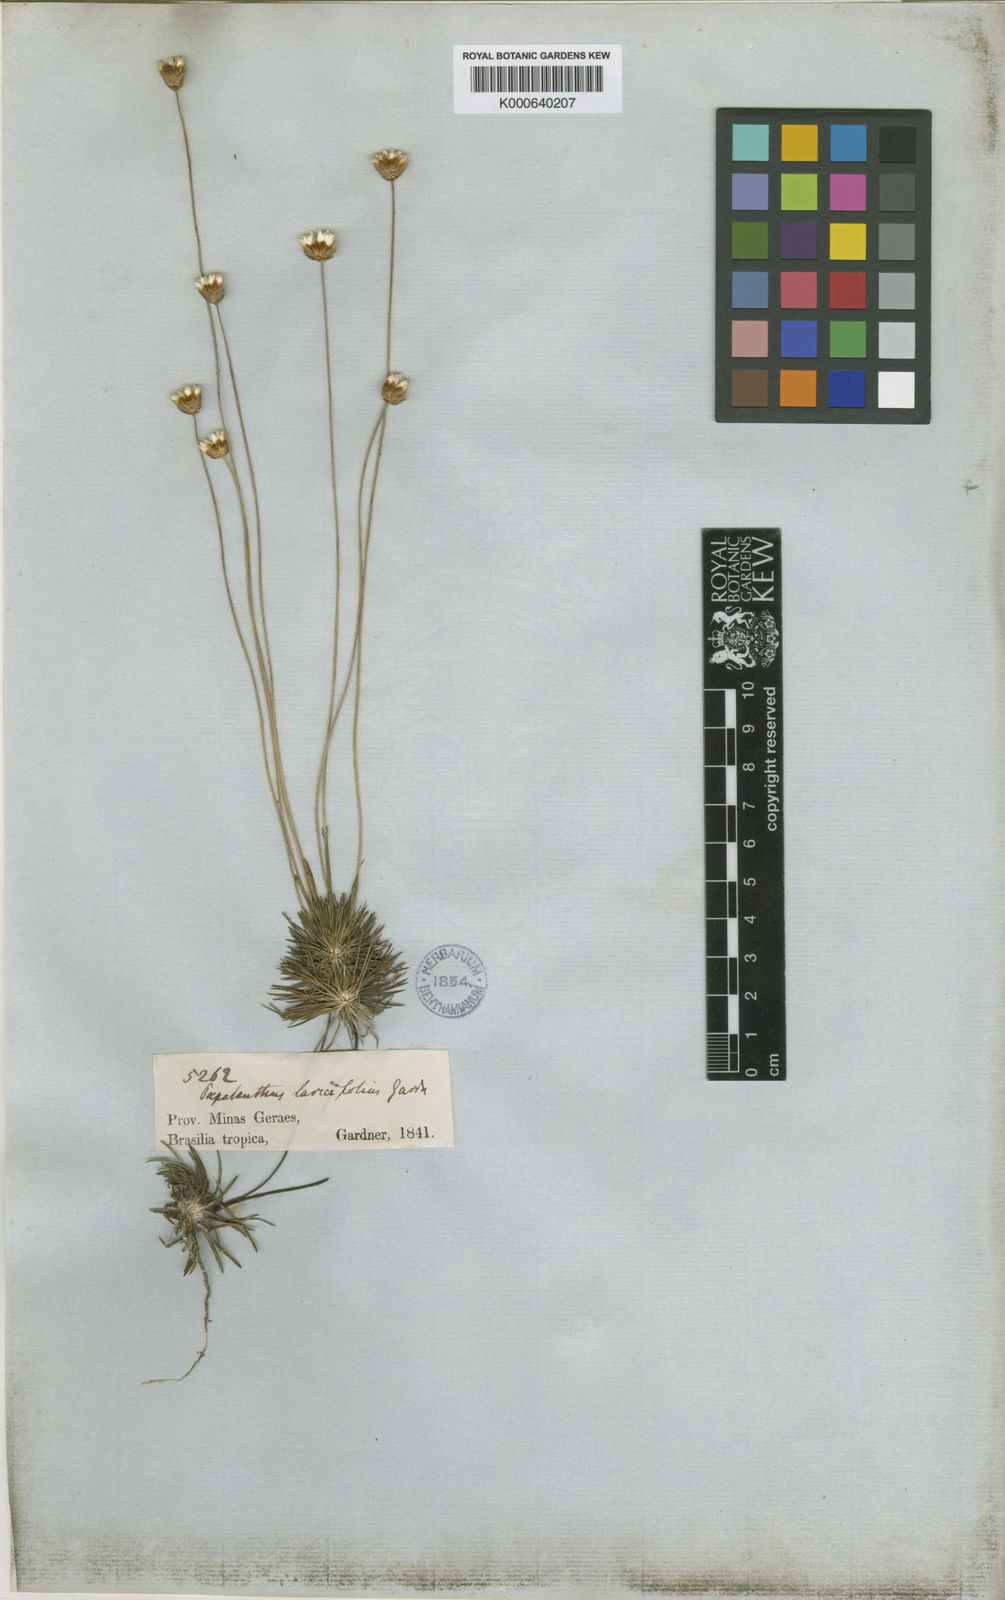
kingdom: Plantae
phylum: Tracheophyta
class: Liliopsida
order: Poales
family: Eriocaulaceae
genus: Syngonanthus
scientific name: Syngonanthus laricifolius
